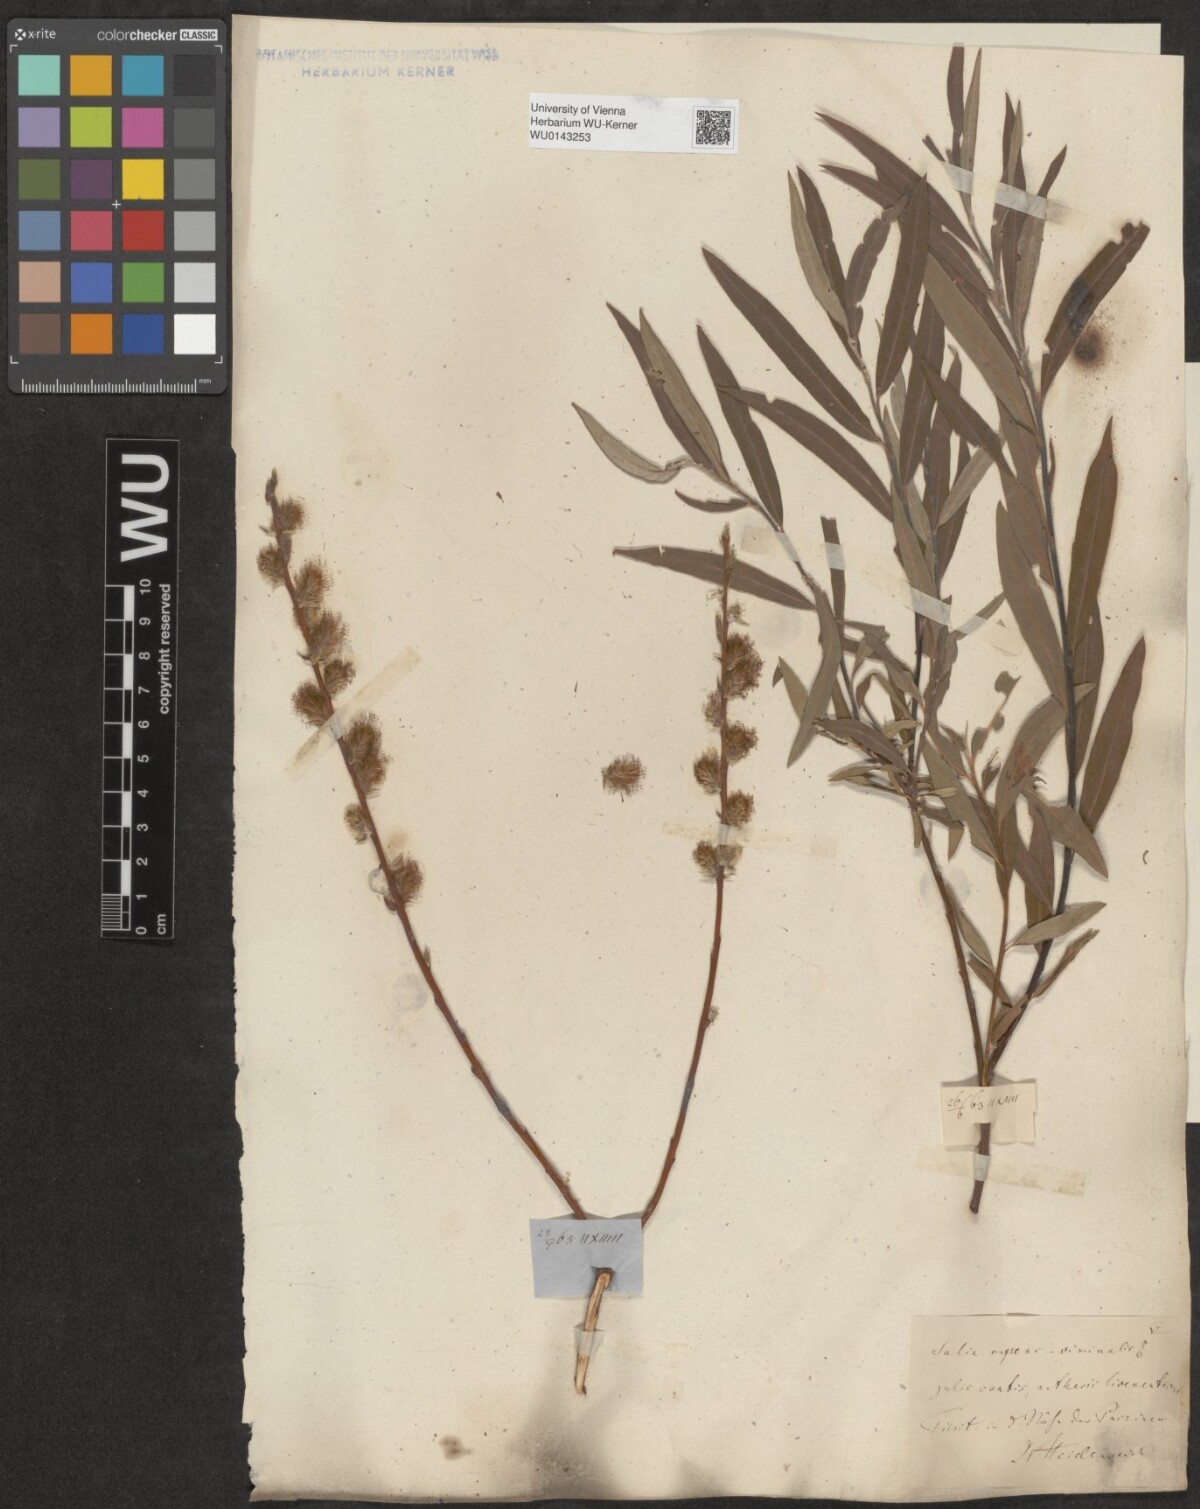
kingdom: Plantae
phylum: Tracheophyta
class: Magnoliopsida
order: Malpighiales
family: Salicaceae
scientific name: Salicaceae
